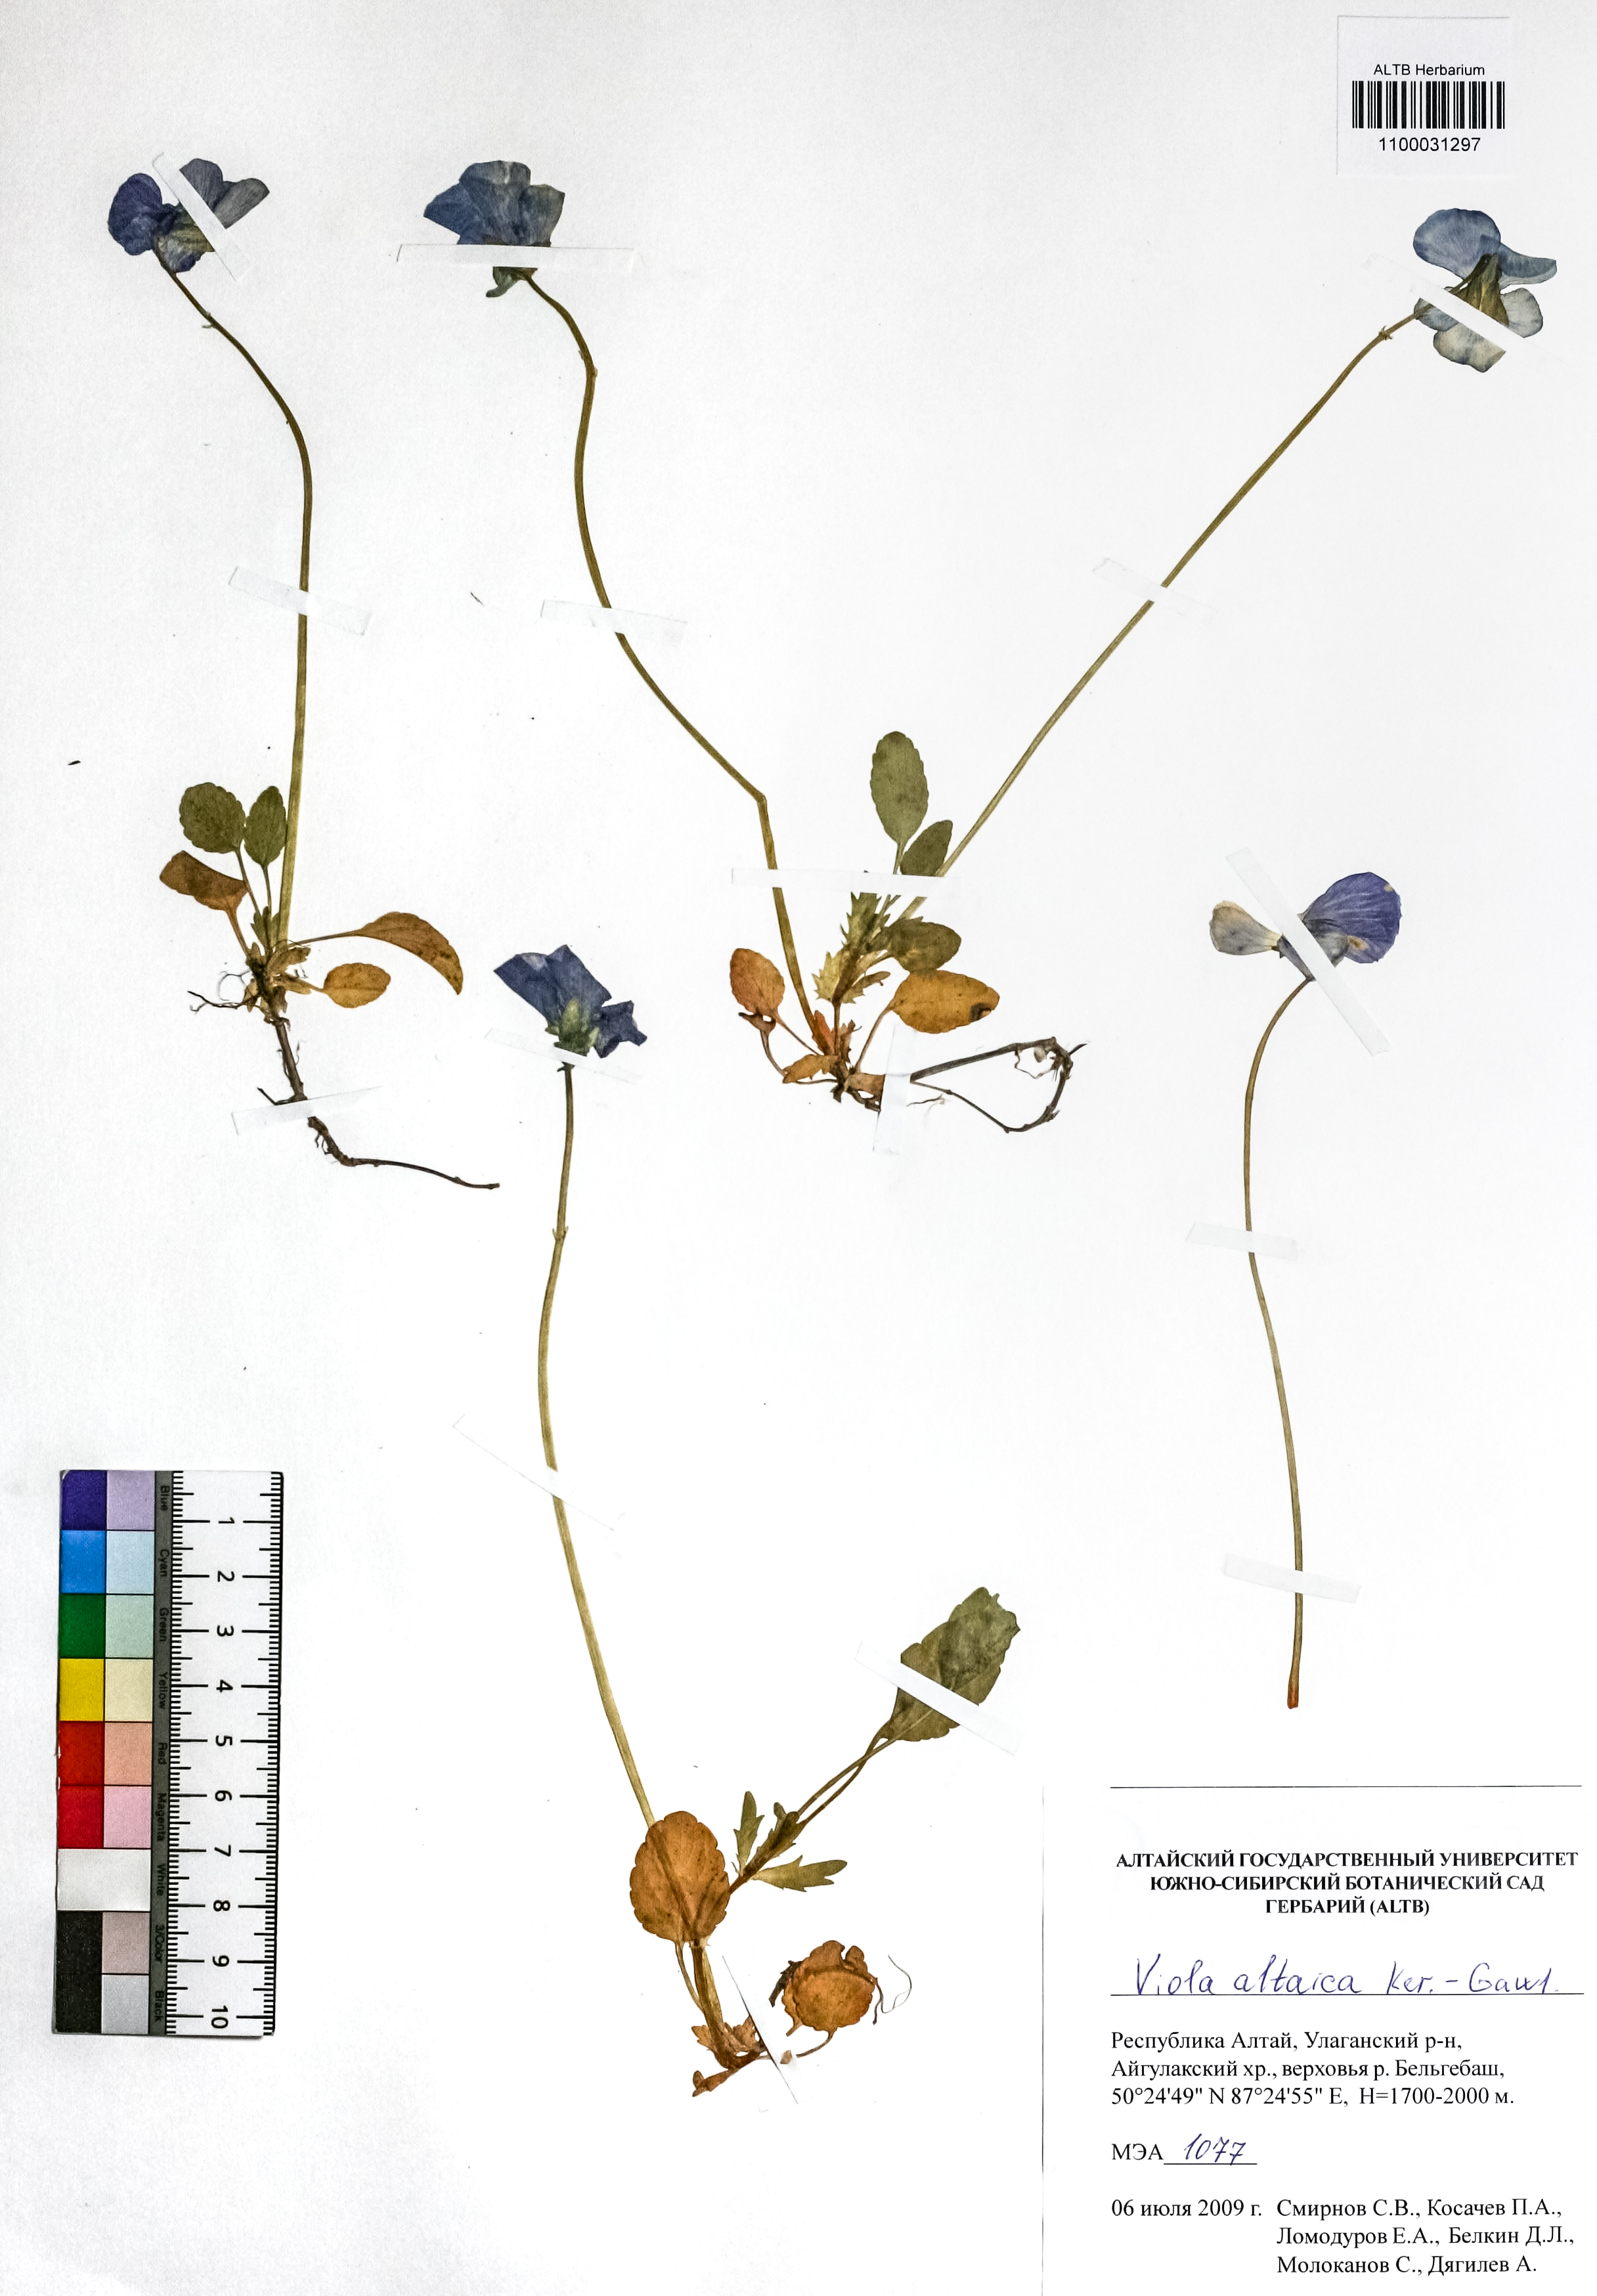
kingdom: Plantae
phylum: Tracheophyta
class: Magnoliopsida
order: Malpighiales
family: Violaceae
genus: Viola
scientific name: Viola altaica
